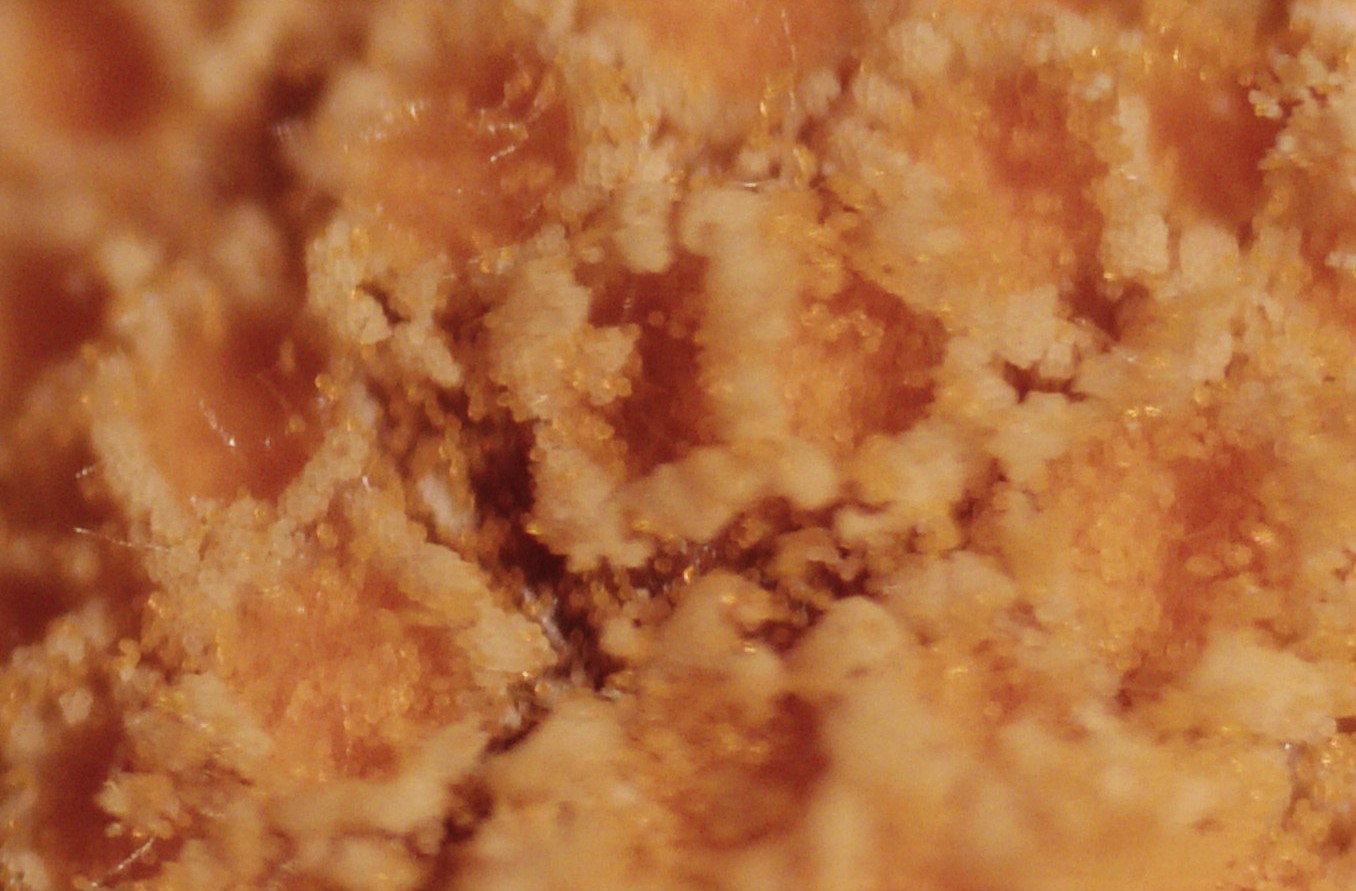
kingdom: Fungi
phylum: Basidiomycota
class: Pucciniomycetes
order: Pucciniales
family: Pucciniaceae
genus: Puccinia
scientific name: Puccinia coronata
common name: Crown rust
